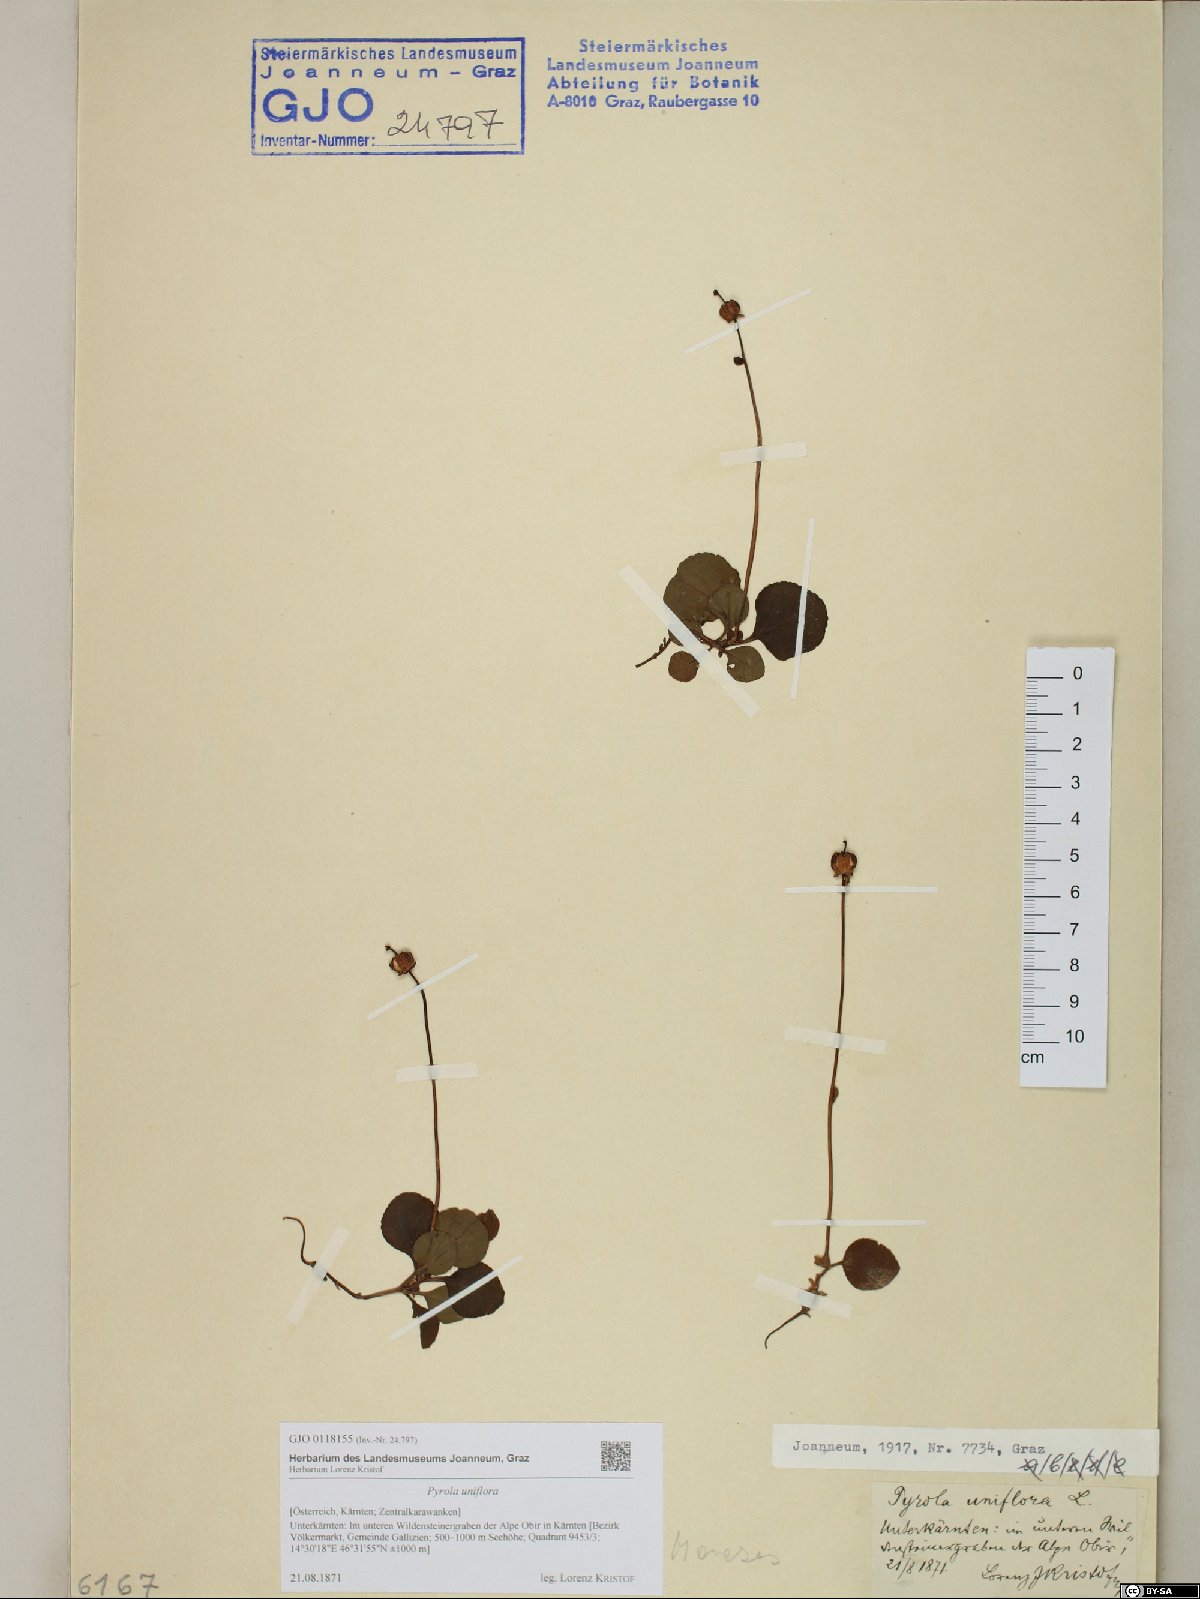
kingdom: Plantae
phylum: Tracheophyta
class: Magnoliopsida
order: Ericales
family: Ericaceae
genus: Moneses
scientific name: Moneses uniflora
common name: One-flowered wintergreen
